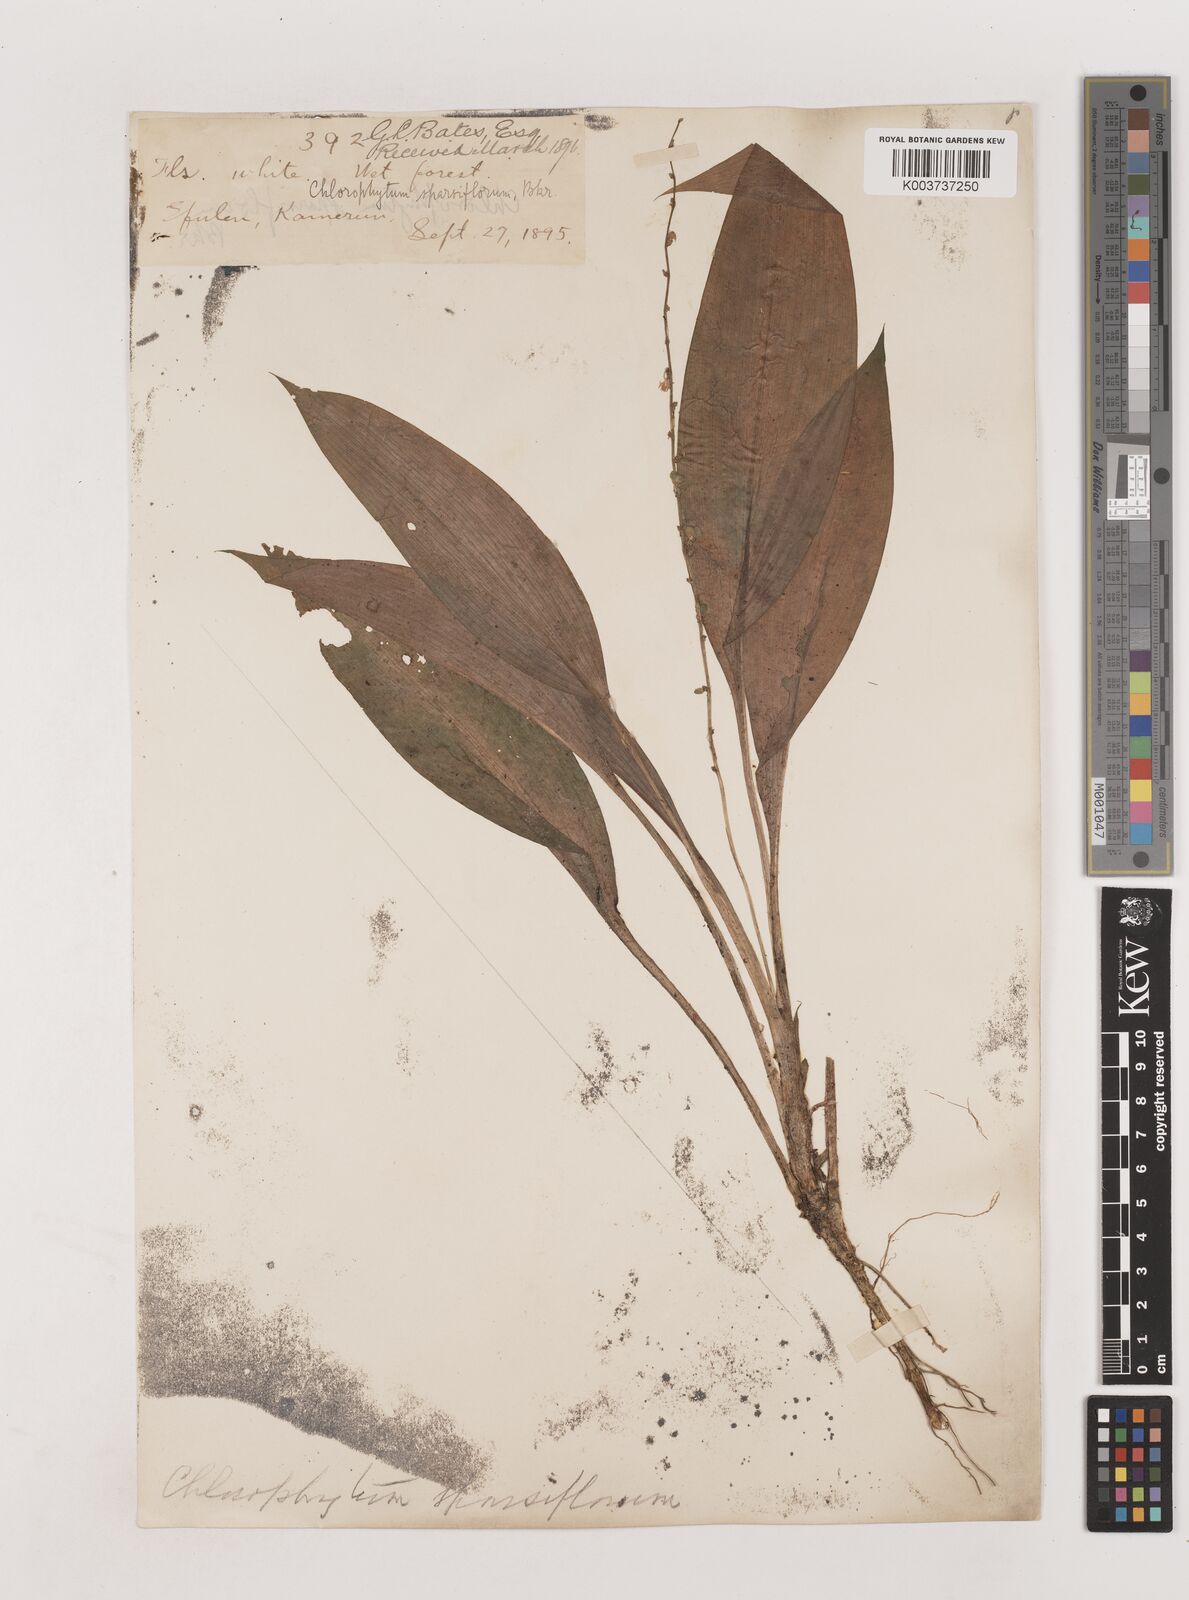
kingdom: Plantae
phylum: Tracheophyta
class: Liliopsida
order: Asparagales
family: Asparagaceae
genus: Chlorophytum
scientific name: Chlorophytum sparsiflorum
